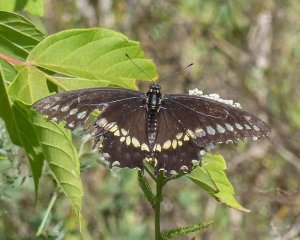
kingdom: Animalia
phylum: Arthropoda
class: Insecta
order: Lepidoptera
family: Papilionidae
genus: Papilio
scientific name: Papilio cresphontes
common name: Eastern Giant Swallowtail
